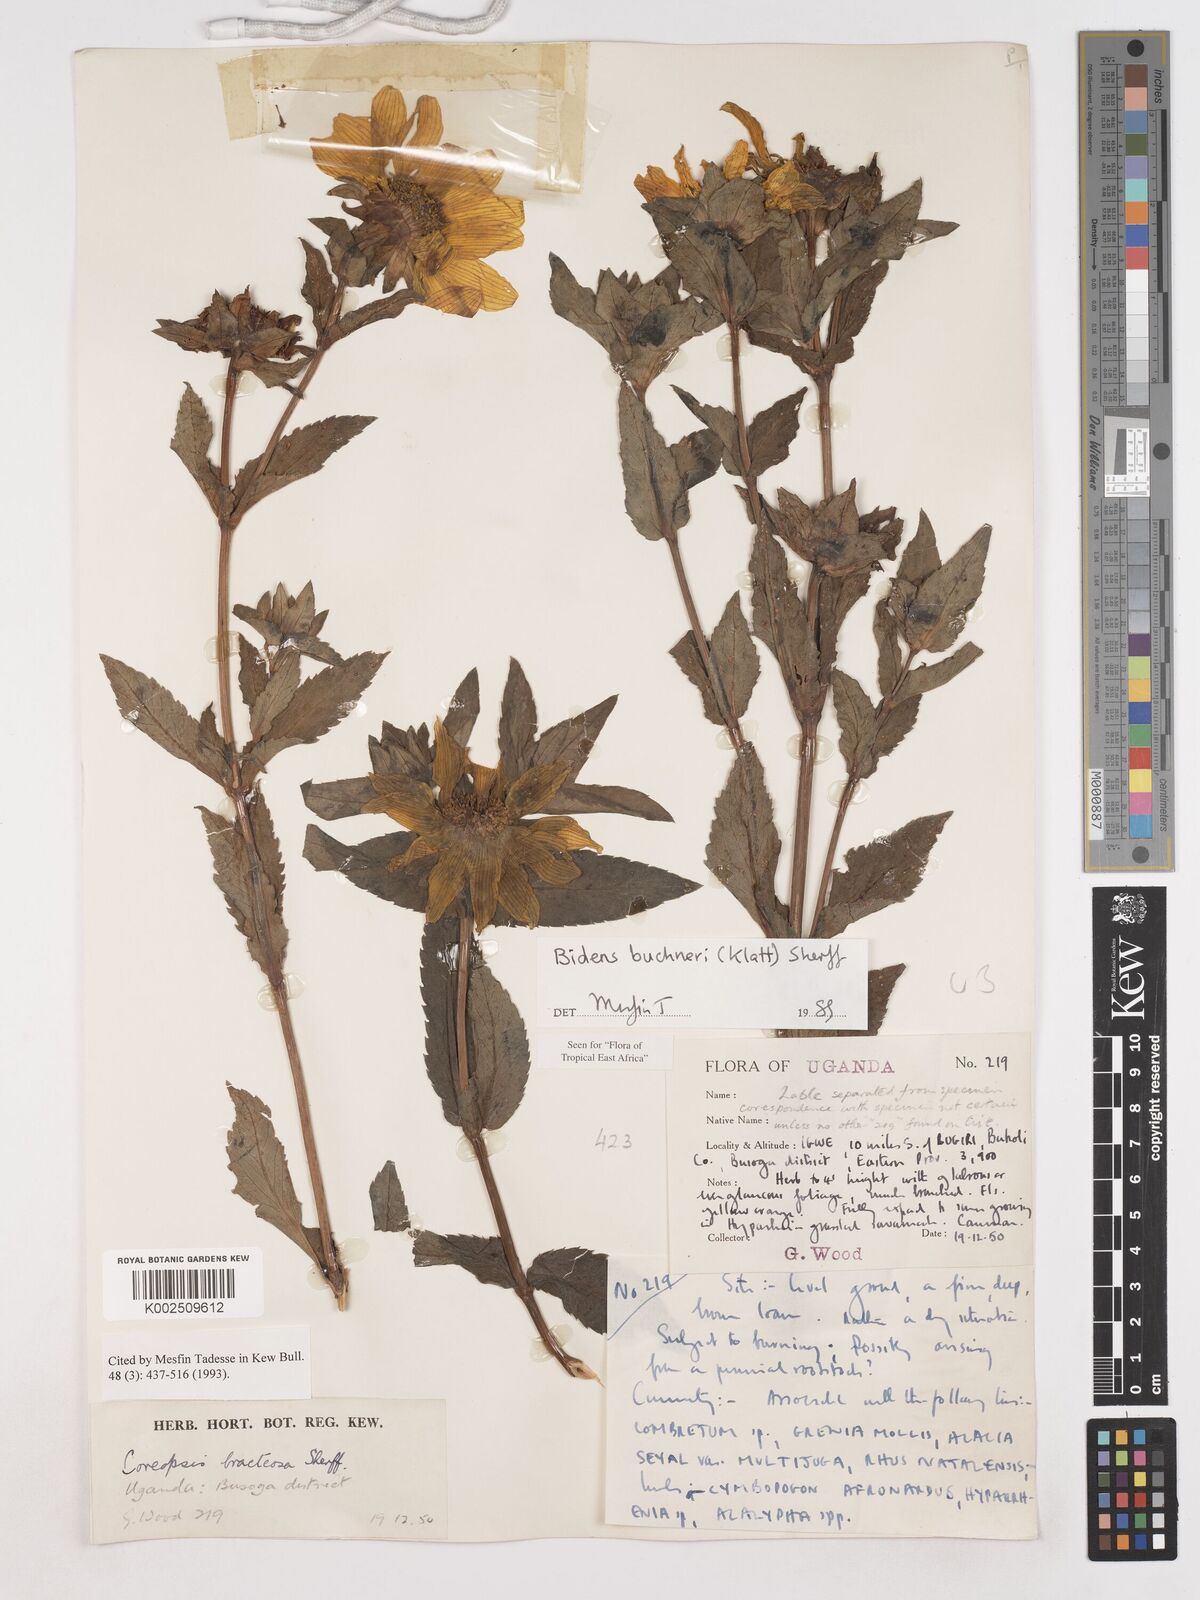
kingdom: Plantae
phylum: Tracheophyta
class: Magnoliopsida
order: Asterales
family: Asteraceae
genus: Bidens
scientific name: Bidens buchneri
